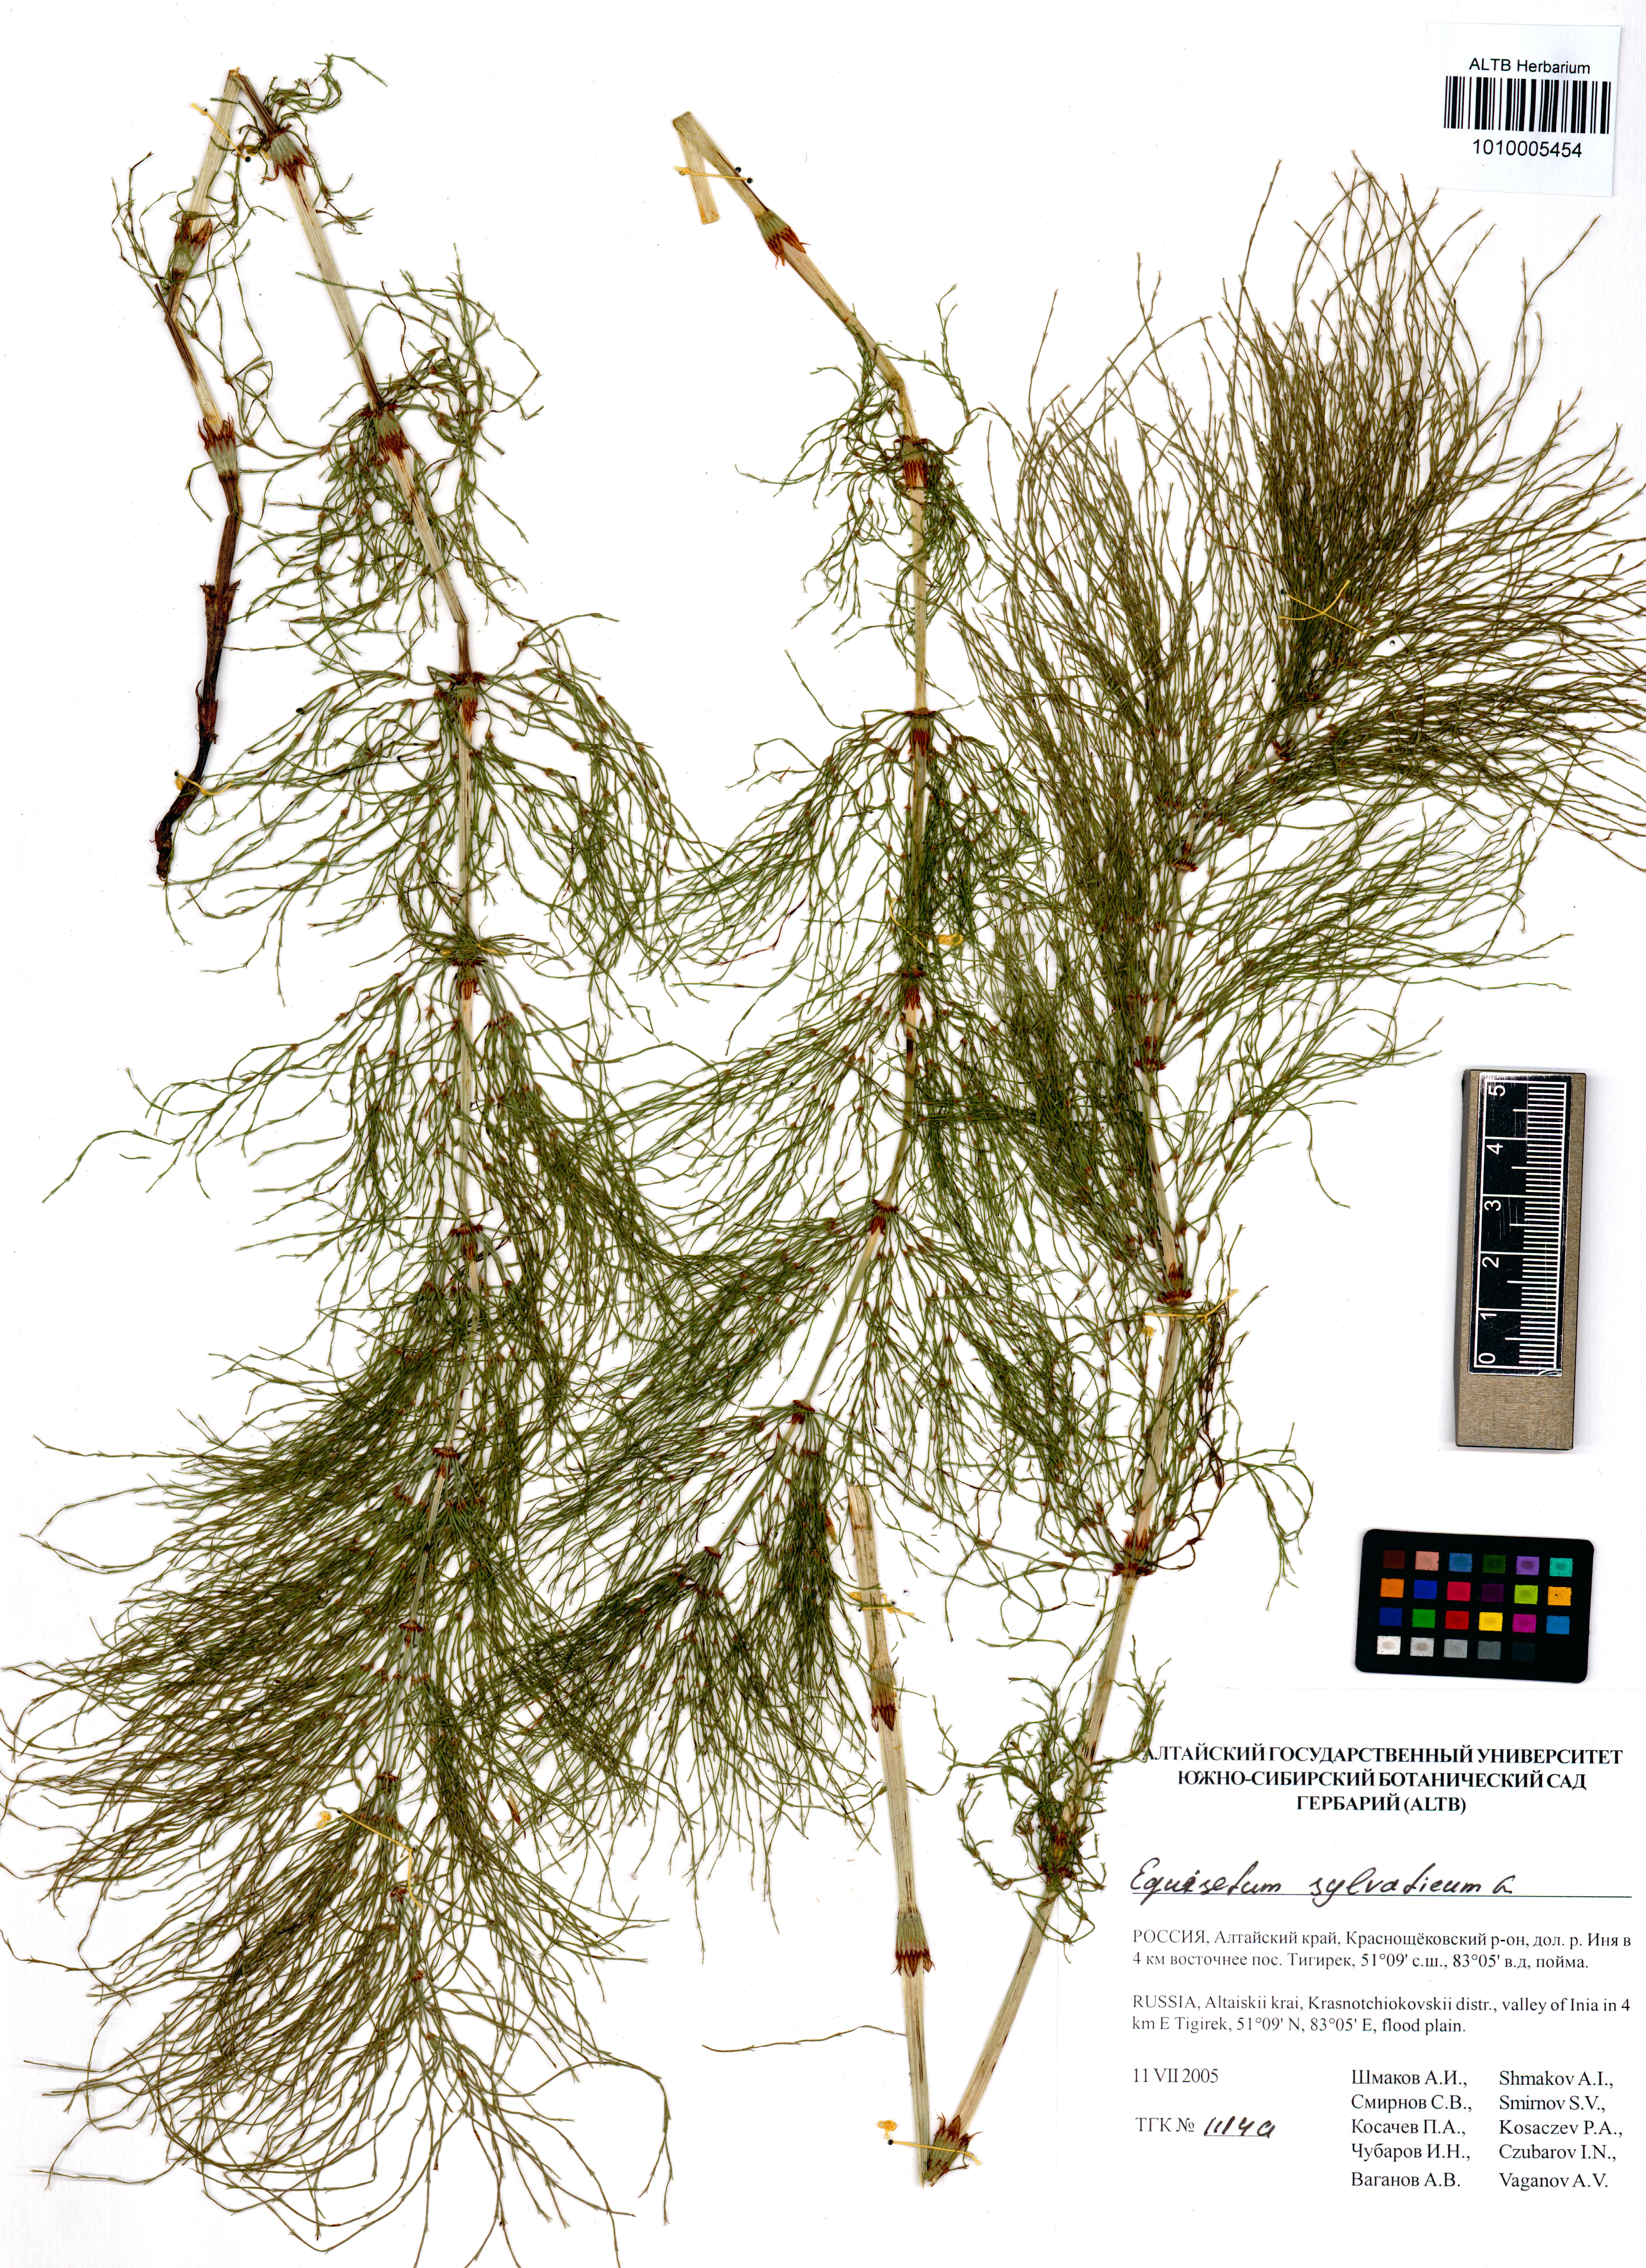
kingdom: Plantae
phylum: Tracheophyta
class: Polypodiopsida
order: Equisetales
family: Equisetaceae
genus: Equisetum
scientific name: Equisetum sylvaticum
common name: Wood horsetail
